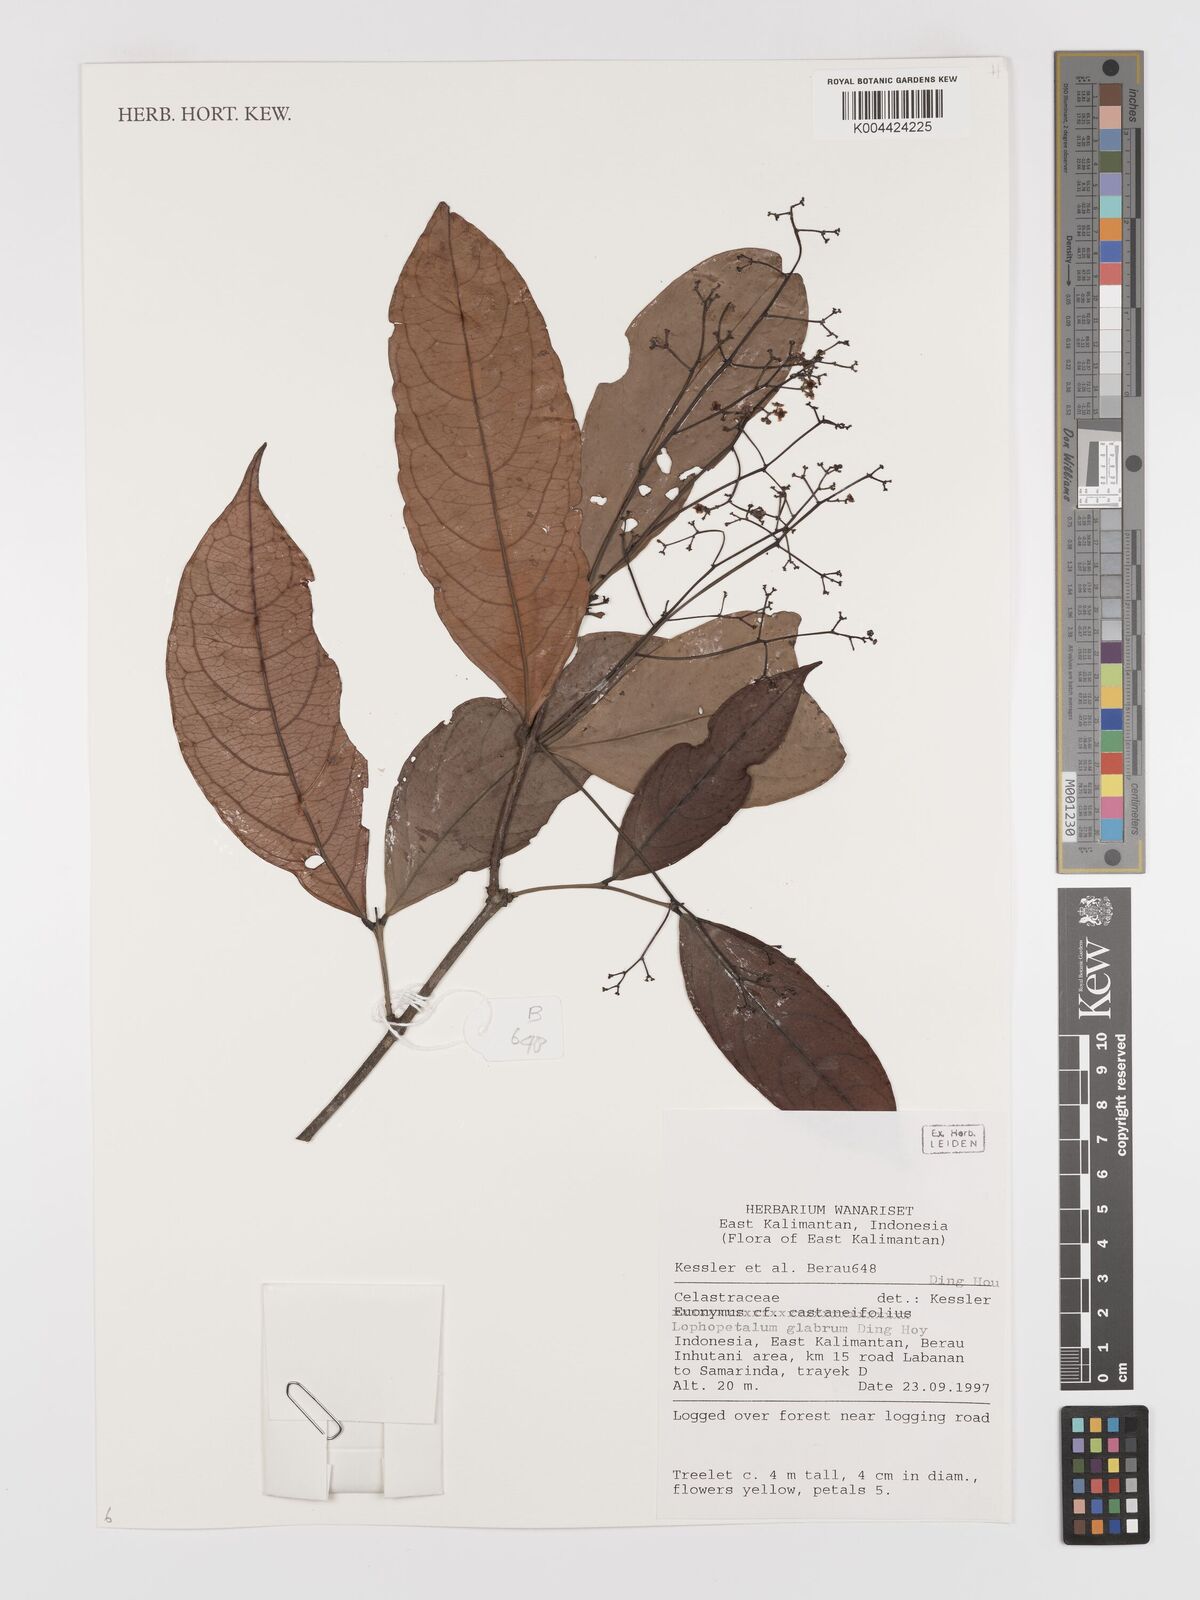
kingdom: Plantae
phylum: Tracheophyta
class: Magnoliopsida
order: Celastrales
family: Celastraceae
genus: Lophopetalum
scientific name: Lophopetalum glabrum
